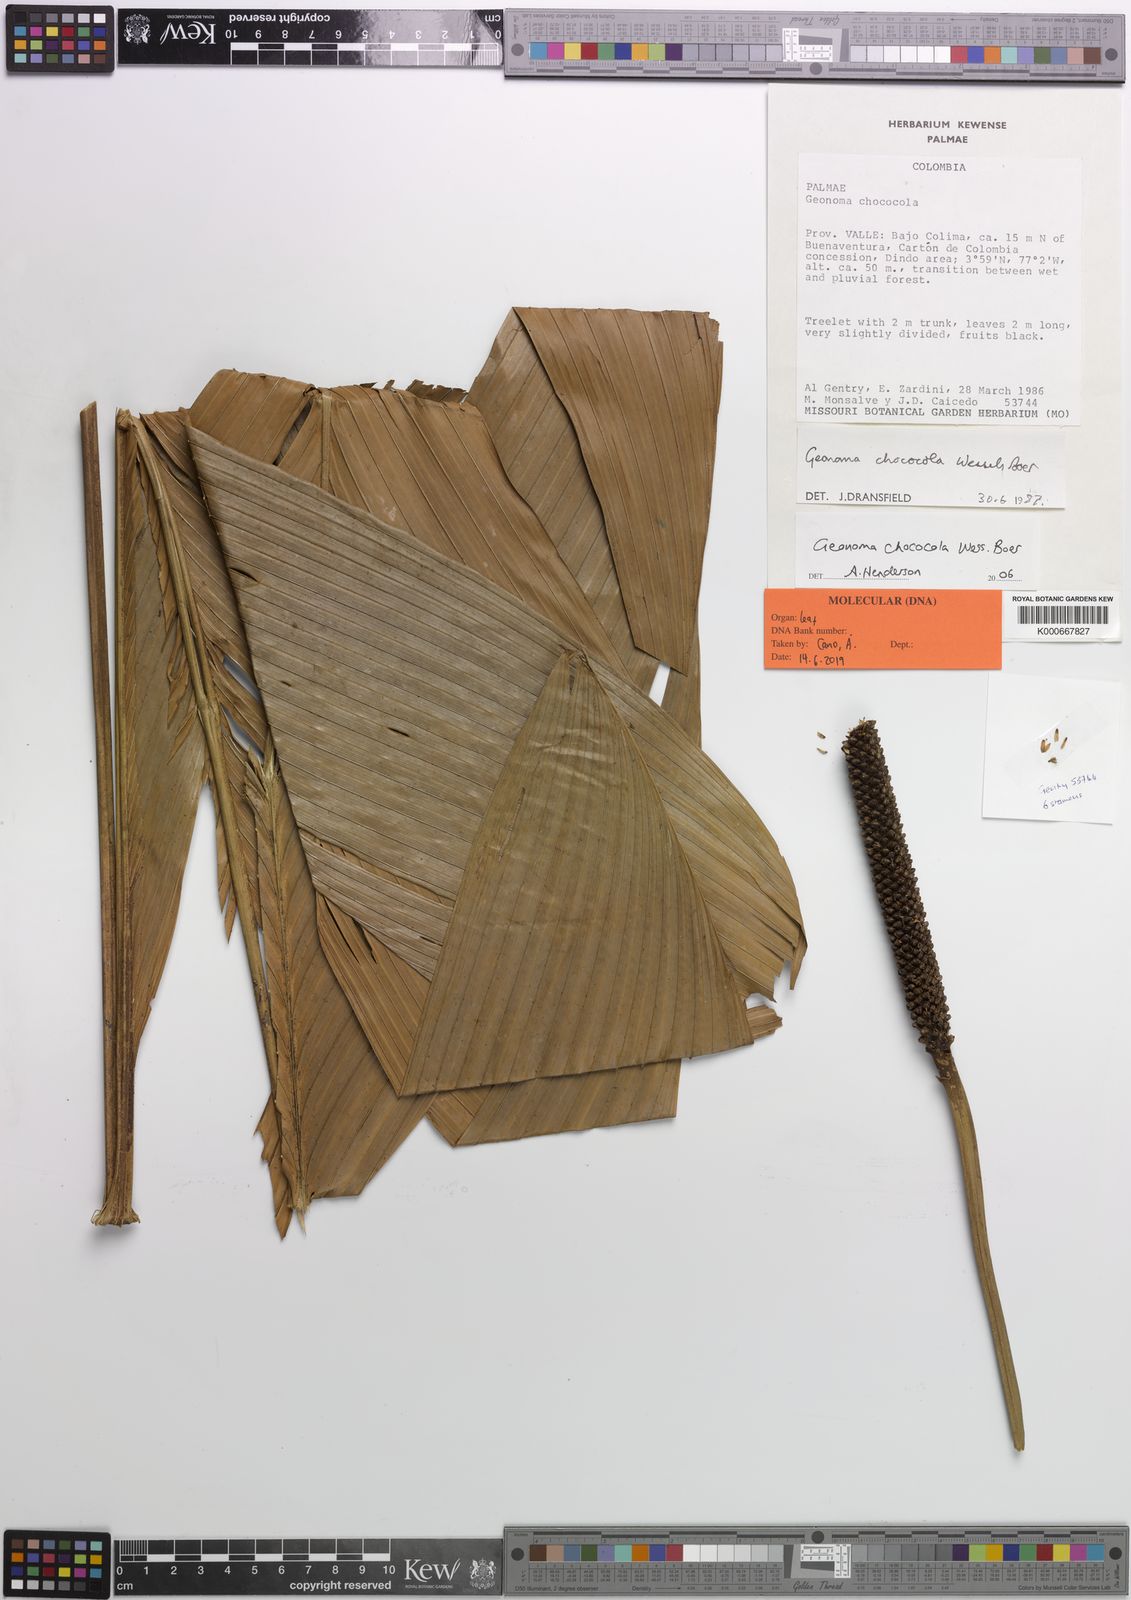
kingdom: Plantae
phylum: Tracheophyta
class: Liliopsida
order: Arecales
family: Arecaceae
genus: Geonoma
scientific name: Geonoma chococola
